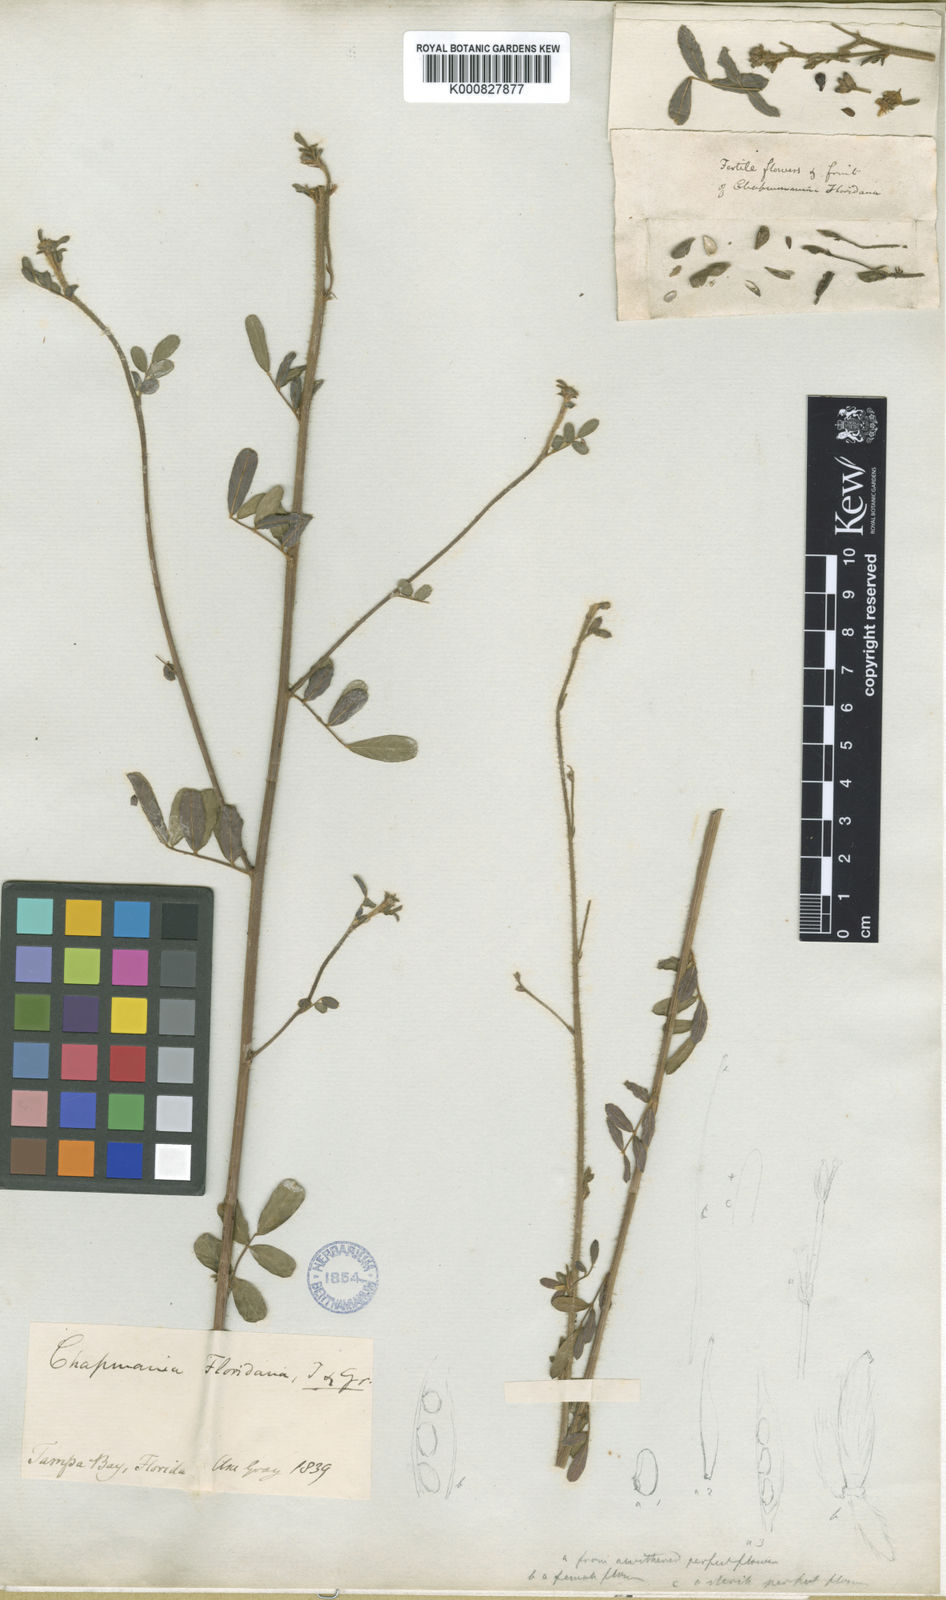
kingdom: Plantae
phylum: Tracheophyta
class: Magnoliopsida
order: Fabales
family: Fabaceae
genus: Chapmannia
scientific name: Chapmannia floridana
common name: Alicia
